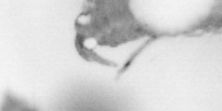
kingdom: Animalia
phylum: Arthropoda
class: Copepoda
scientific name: Copepoda
